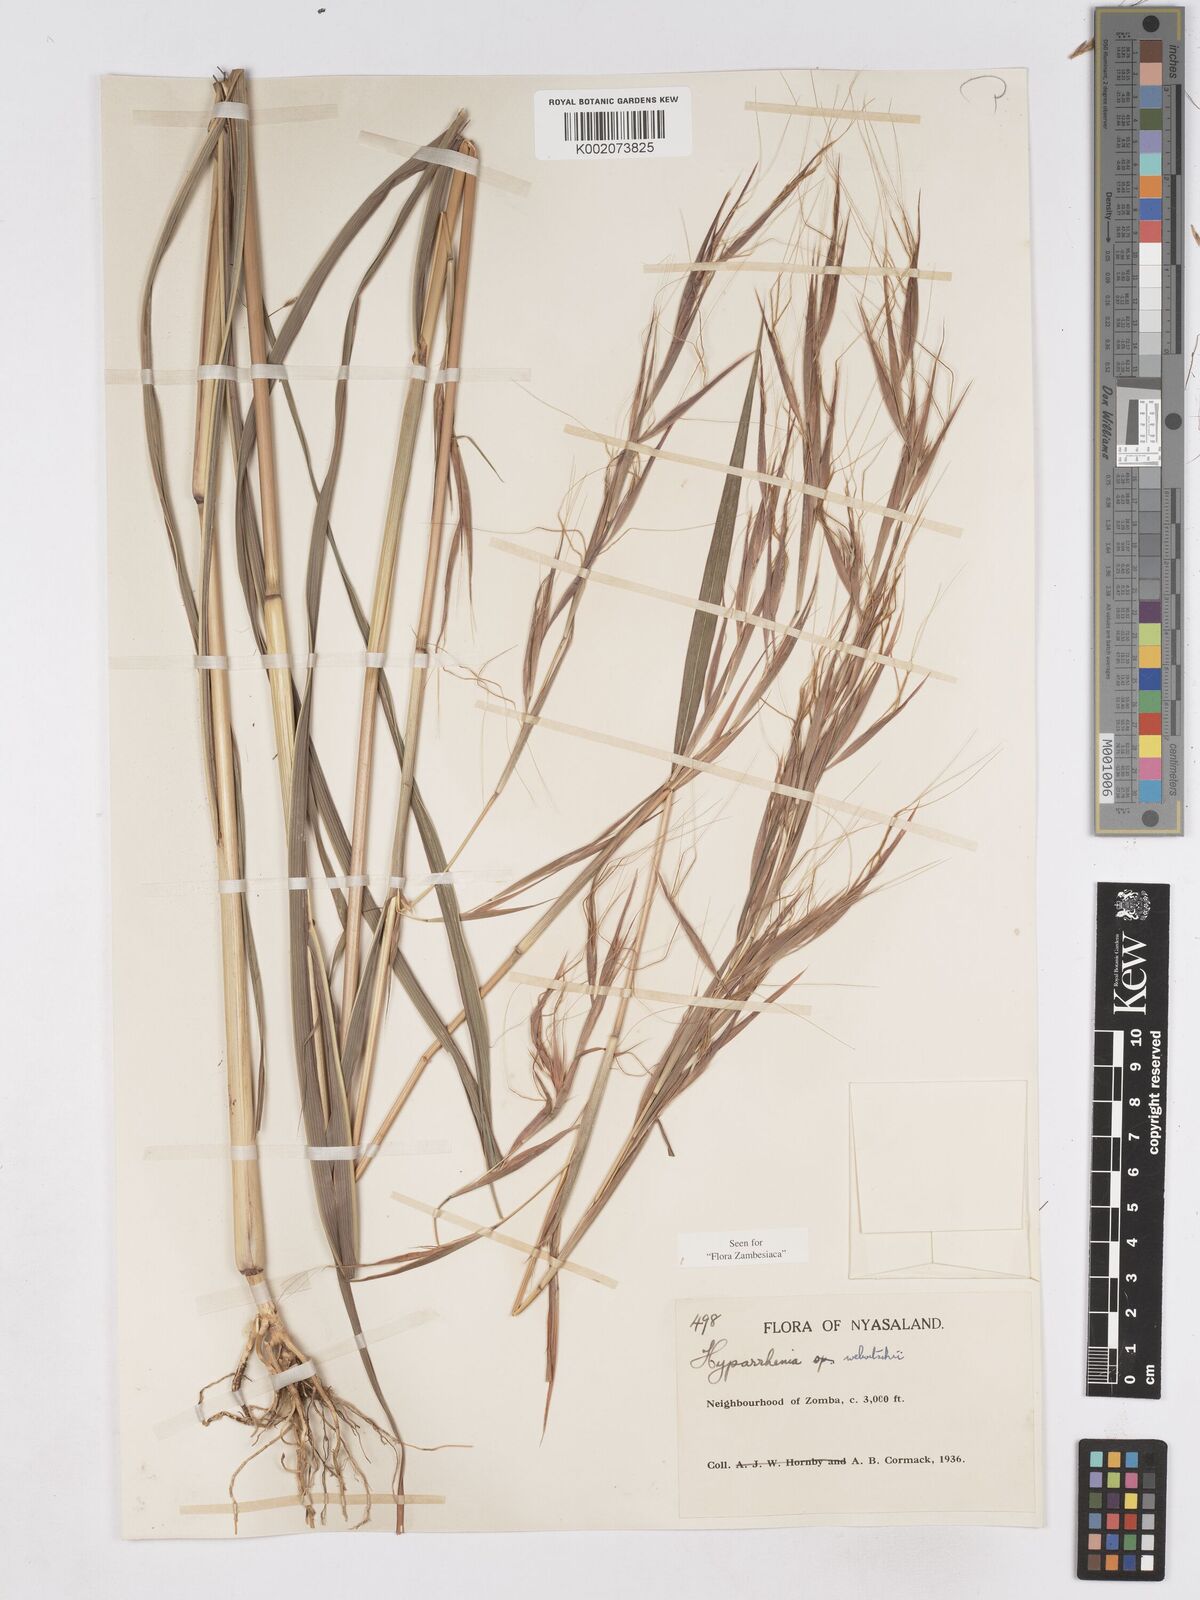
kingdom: Plantae
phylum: Tracheophyta
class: Liliopsida
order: Poales
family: Poaceae
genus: Hyparrhenia
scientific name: Hyparrhenia welwitschii
